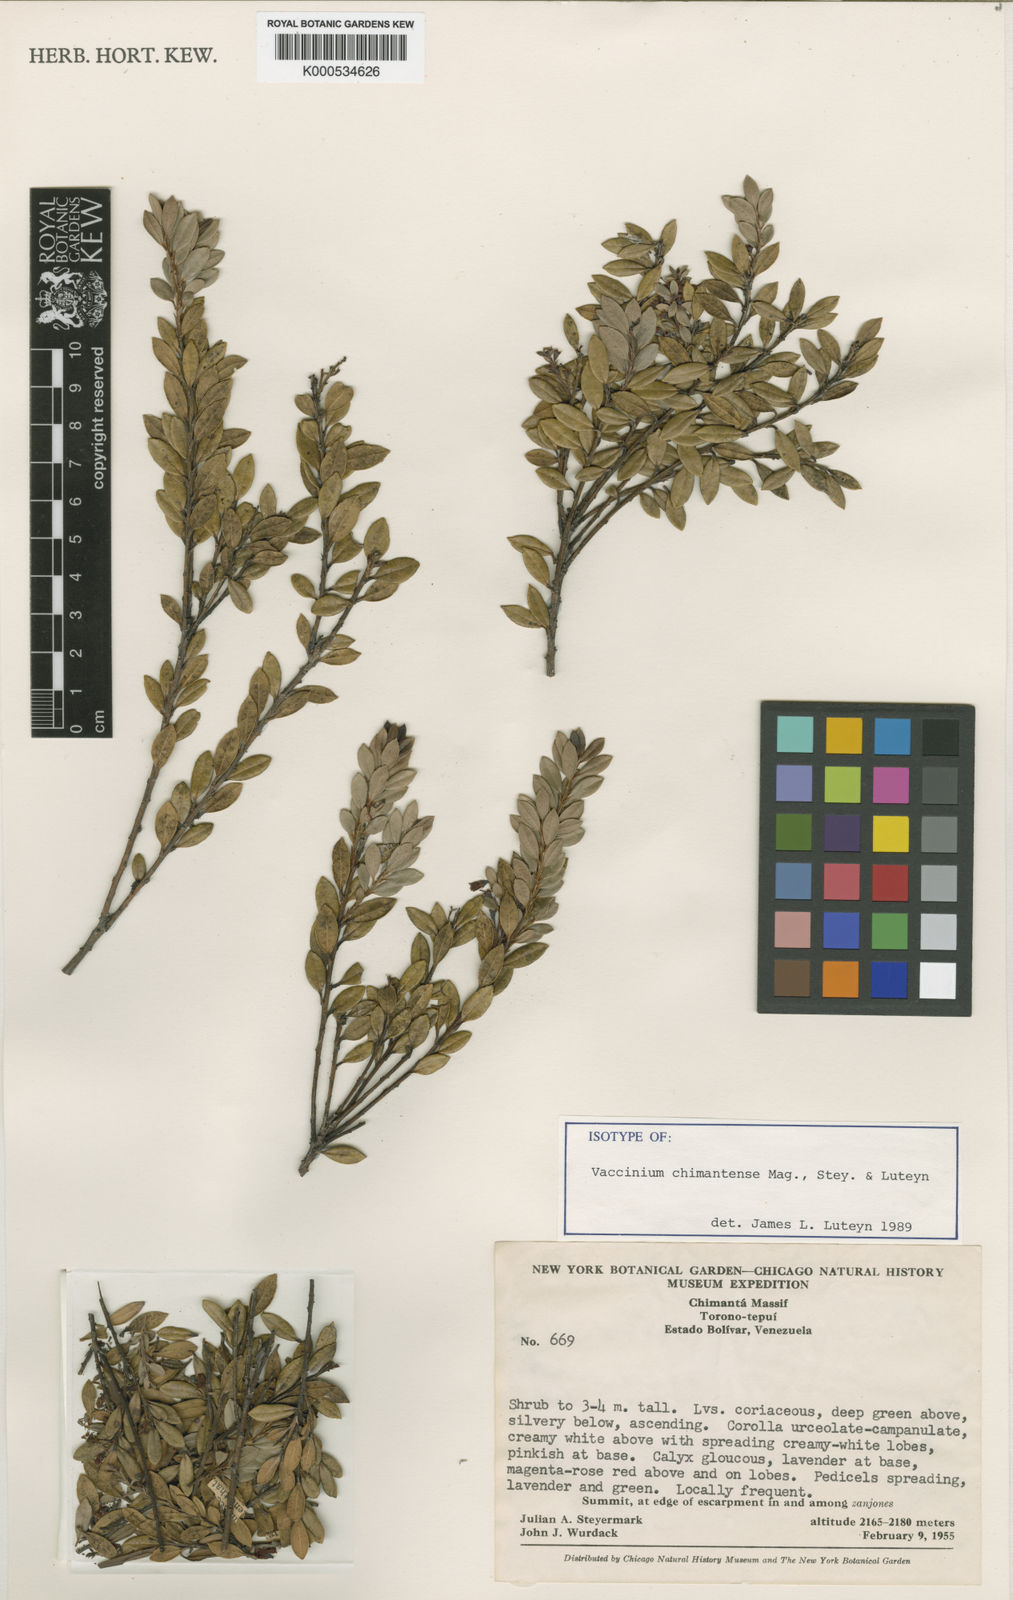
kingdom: Plantae
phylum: Tracheophyta
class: Magnoliopsida
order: Ericales
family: Ericaceae
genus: Vaccinium
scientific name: Vaccinium chimantense
